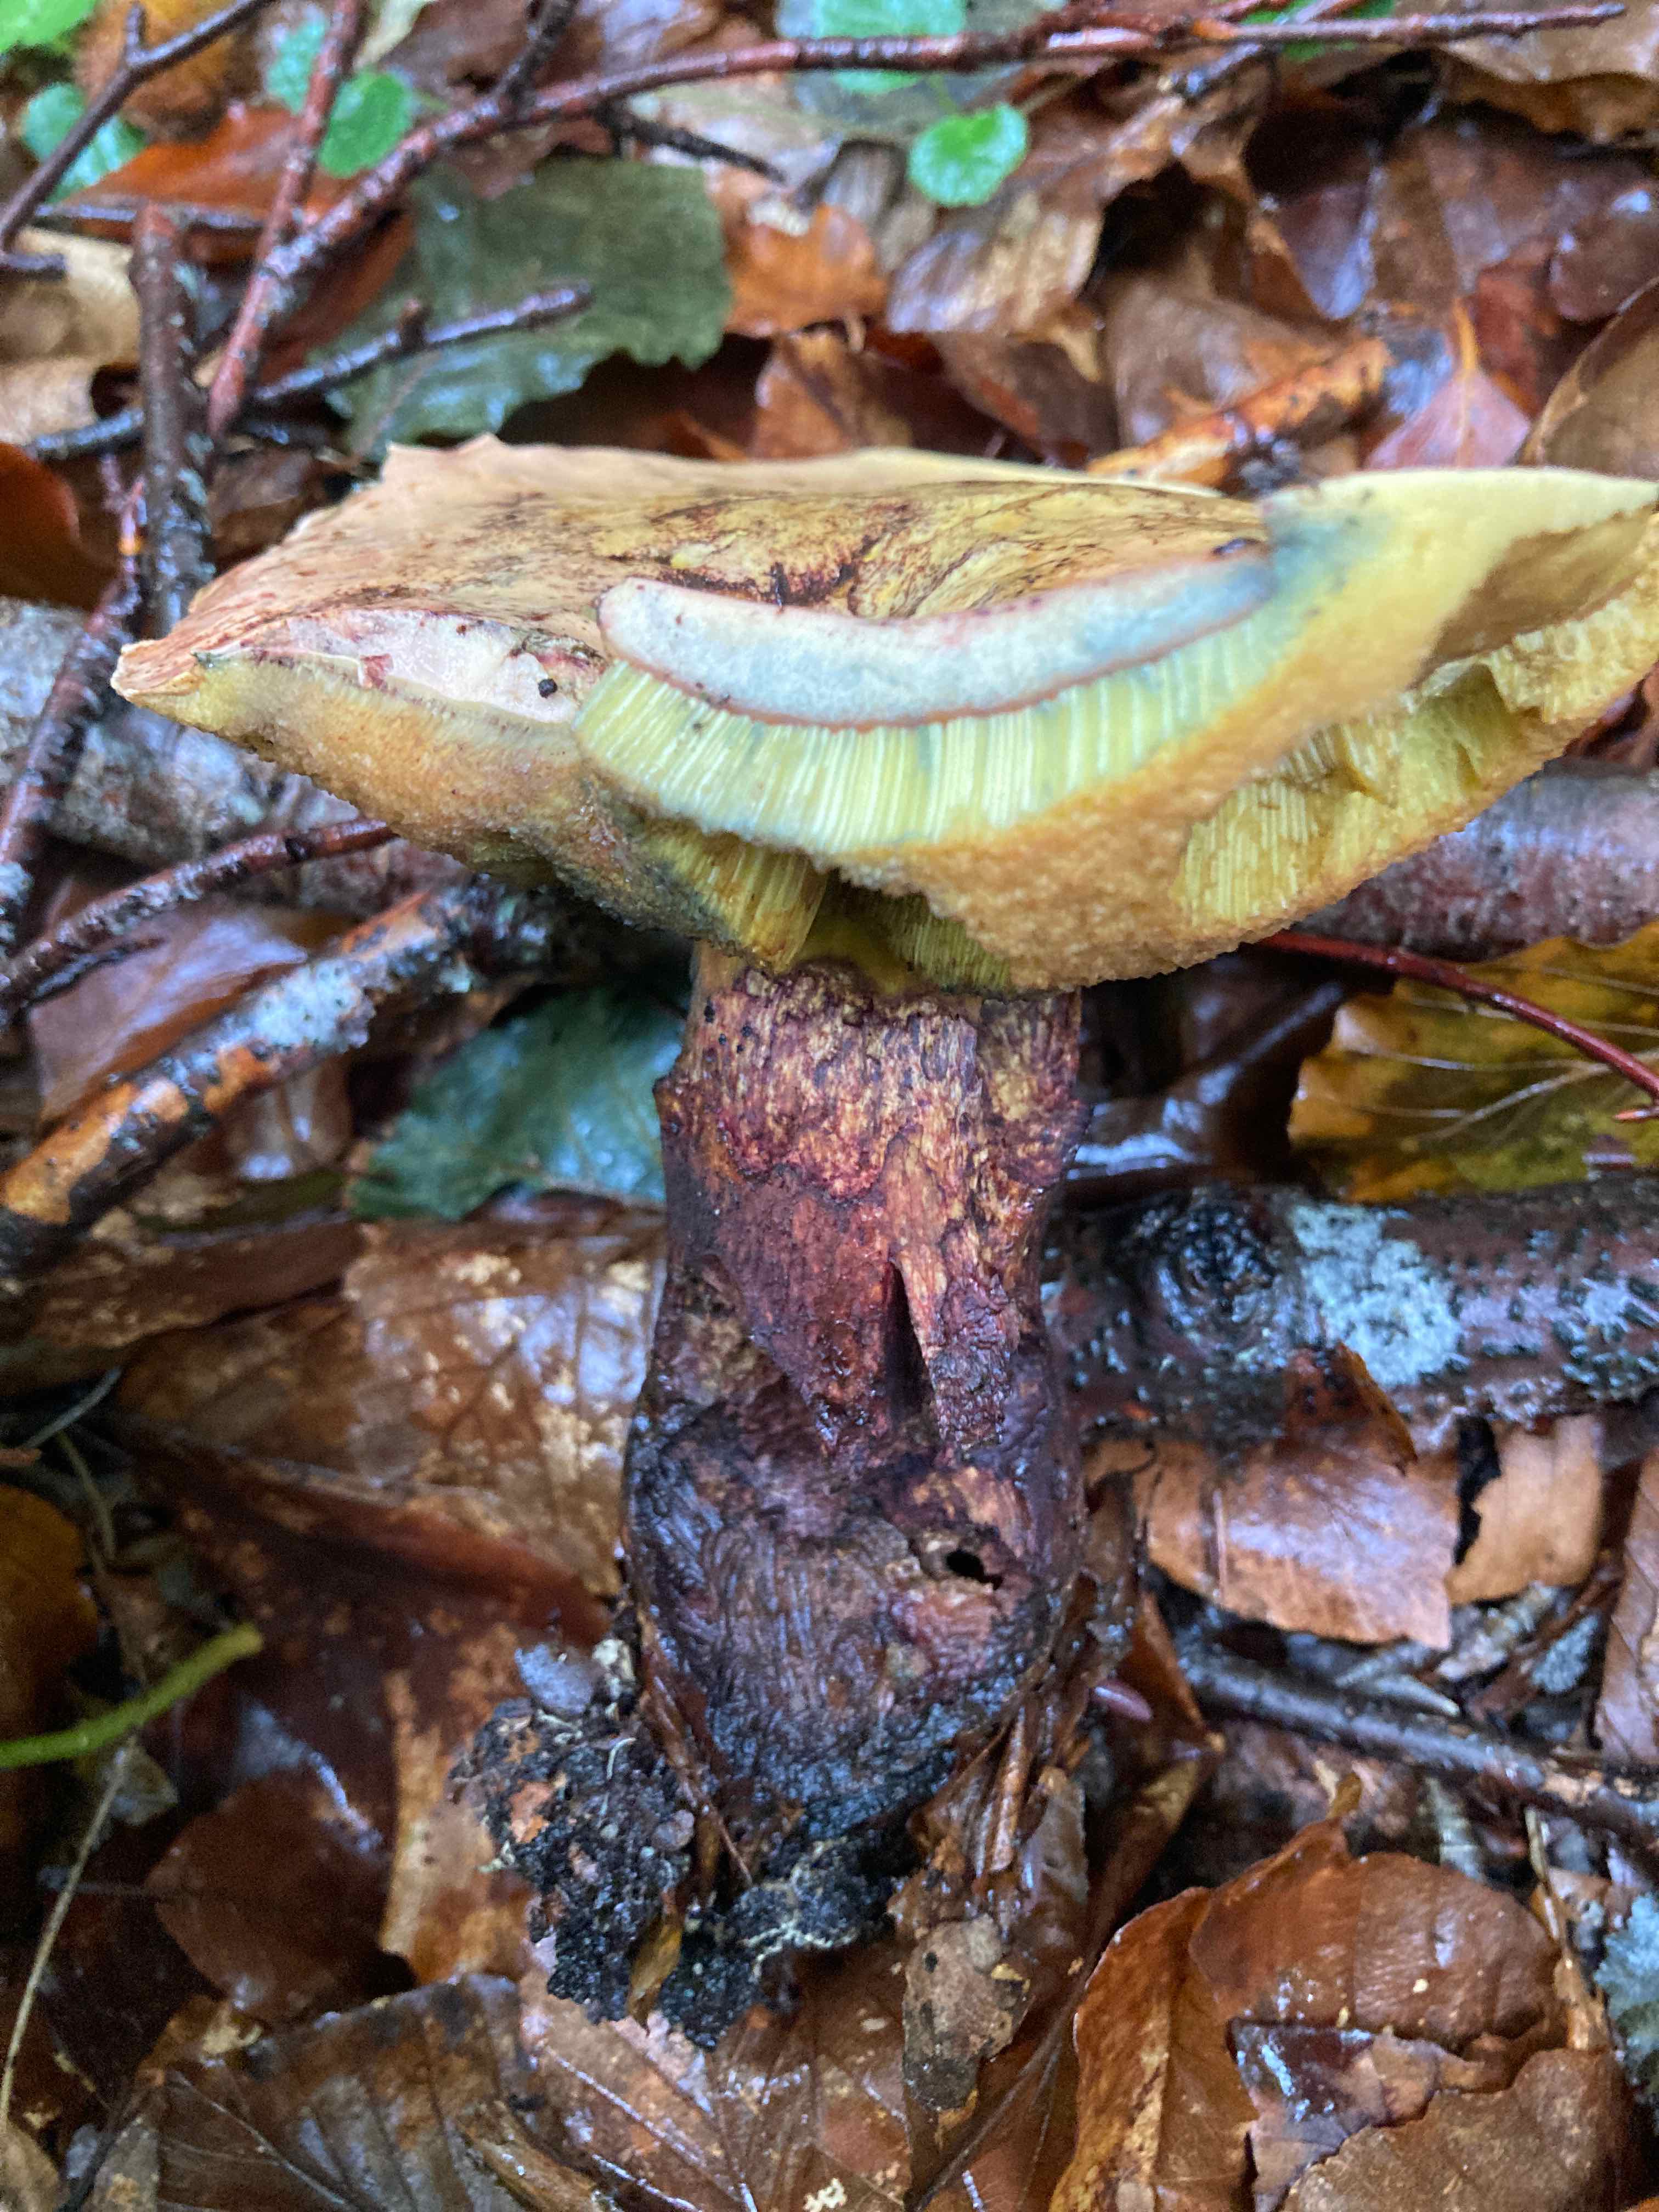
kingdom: Fungi
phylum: Basidiomycota
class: Agaricomycetes
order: Boletales
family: Boletaceae
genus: Suillellus
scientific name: Suillellus luridus
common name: netstokket indigorørhat
